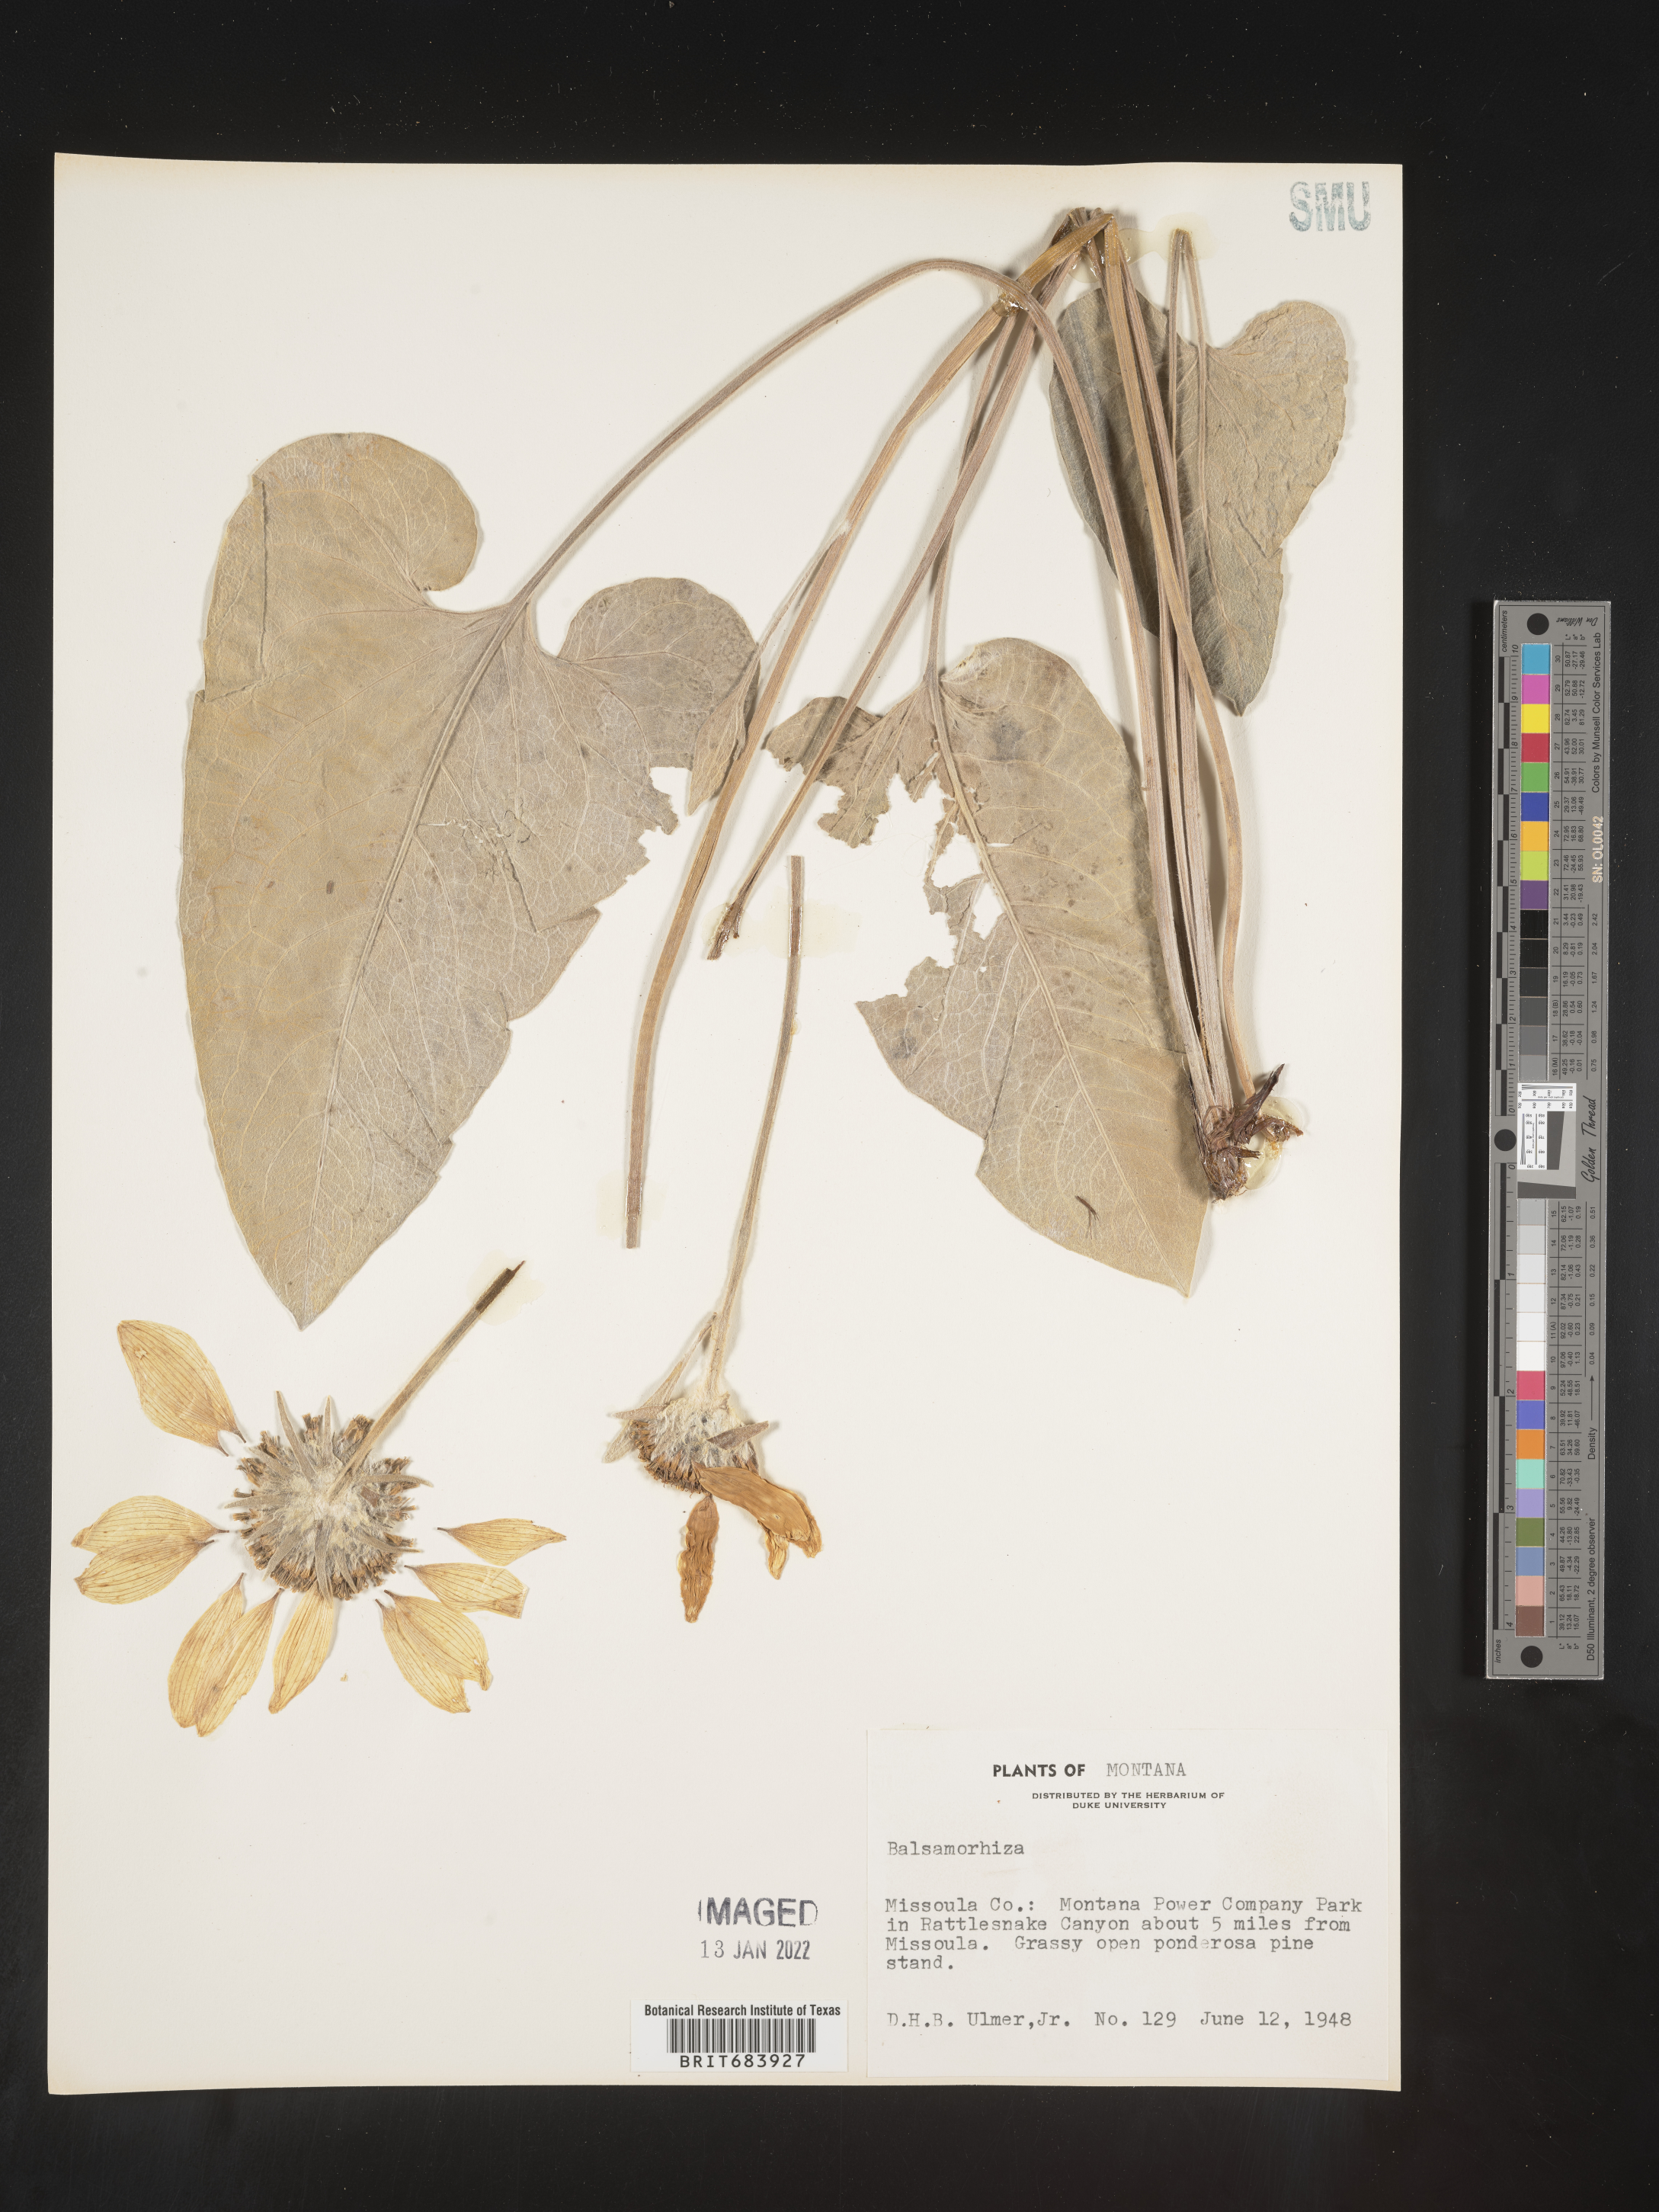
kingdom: Plantae
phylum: Tracheophyta
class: Magnoliopsida
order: Asterales
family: Asteraceae
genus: Balsamorhiza
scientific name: Balsamorhiza serrata
